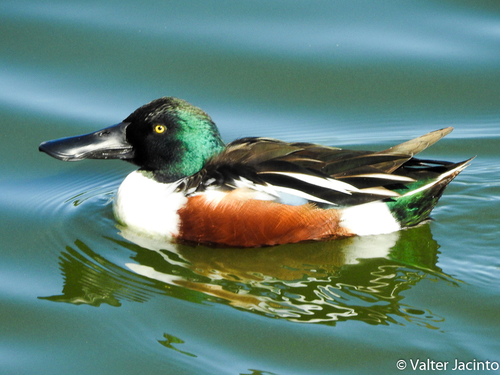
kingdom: Animalia
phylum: Chordata
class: Aves
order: Anseriformes
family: Anatidae
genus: Spatula
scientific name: Spatula clypeata
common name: Northern shoveler
